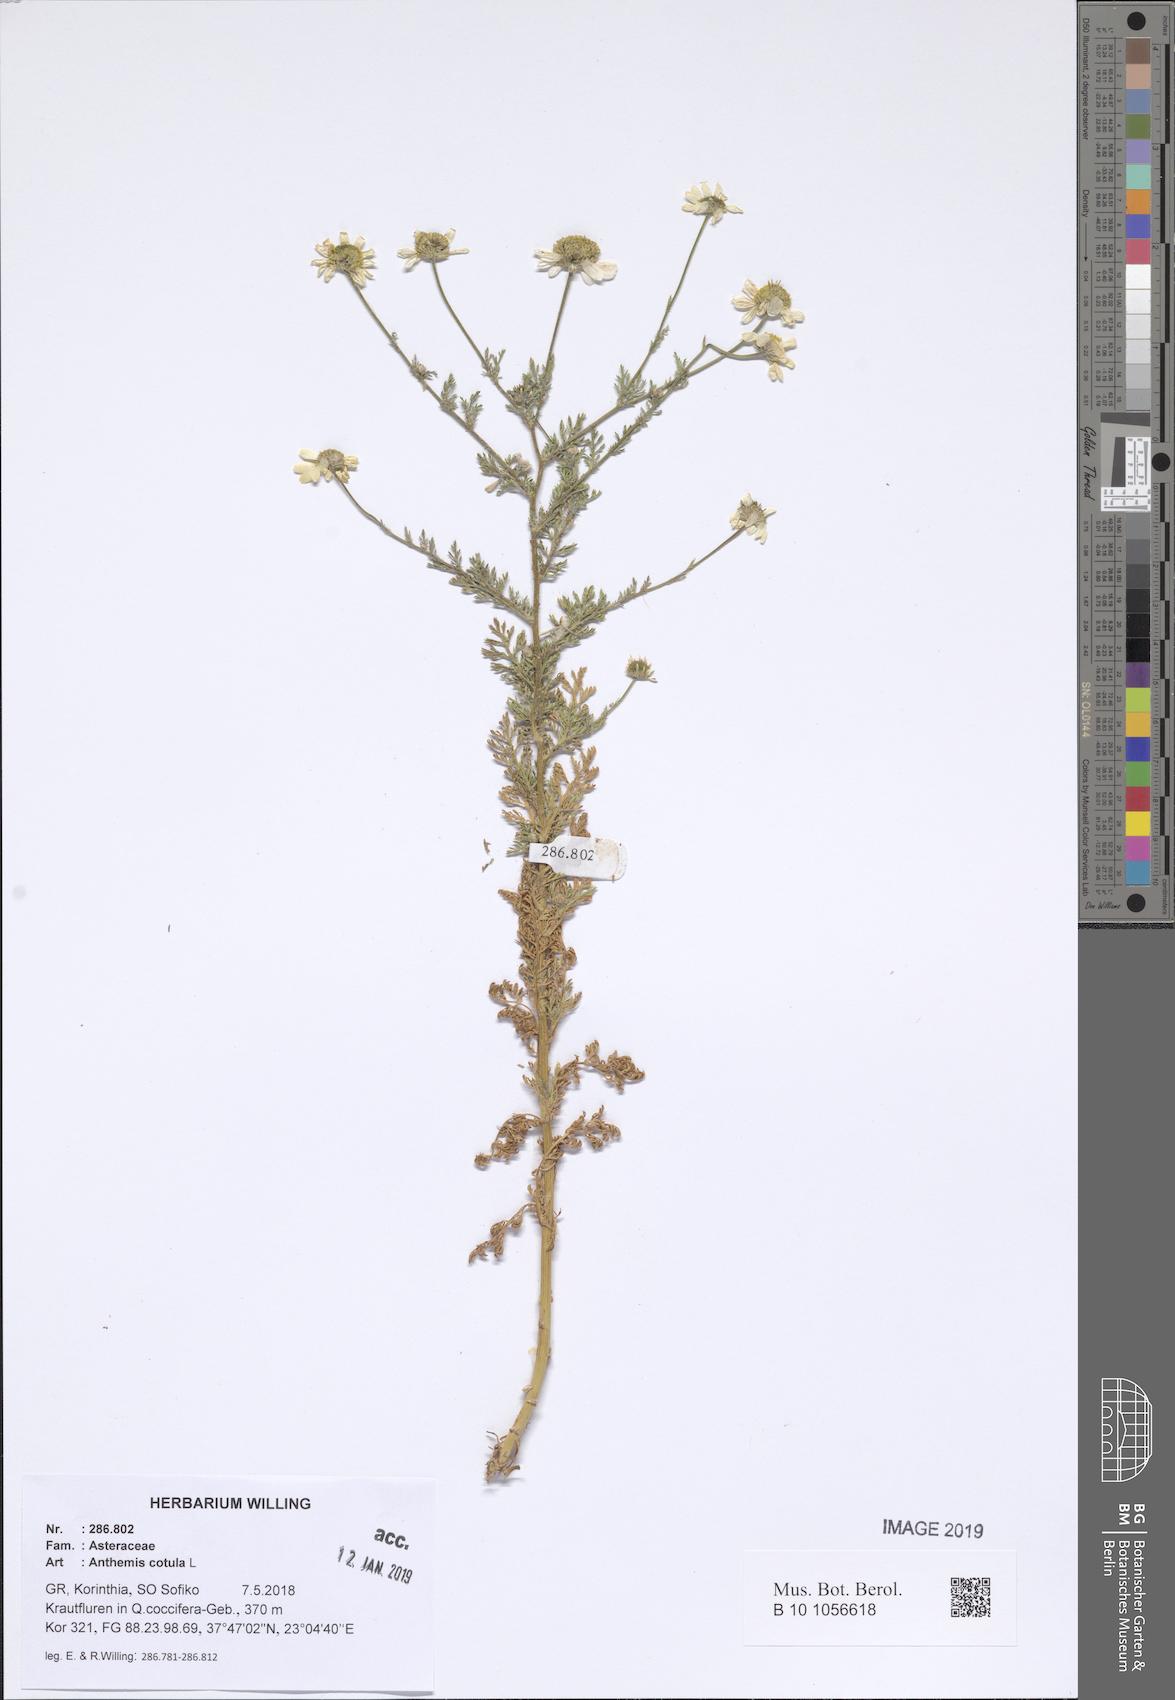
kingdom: Plantae
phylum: Tracheophyta
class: Magnoliopsida
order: Asterales
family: Asteraceae
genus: Anthemis
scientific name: Anthemis cotula
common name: Stinking chamomile
